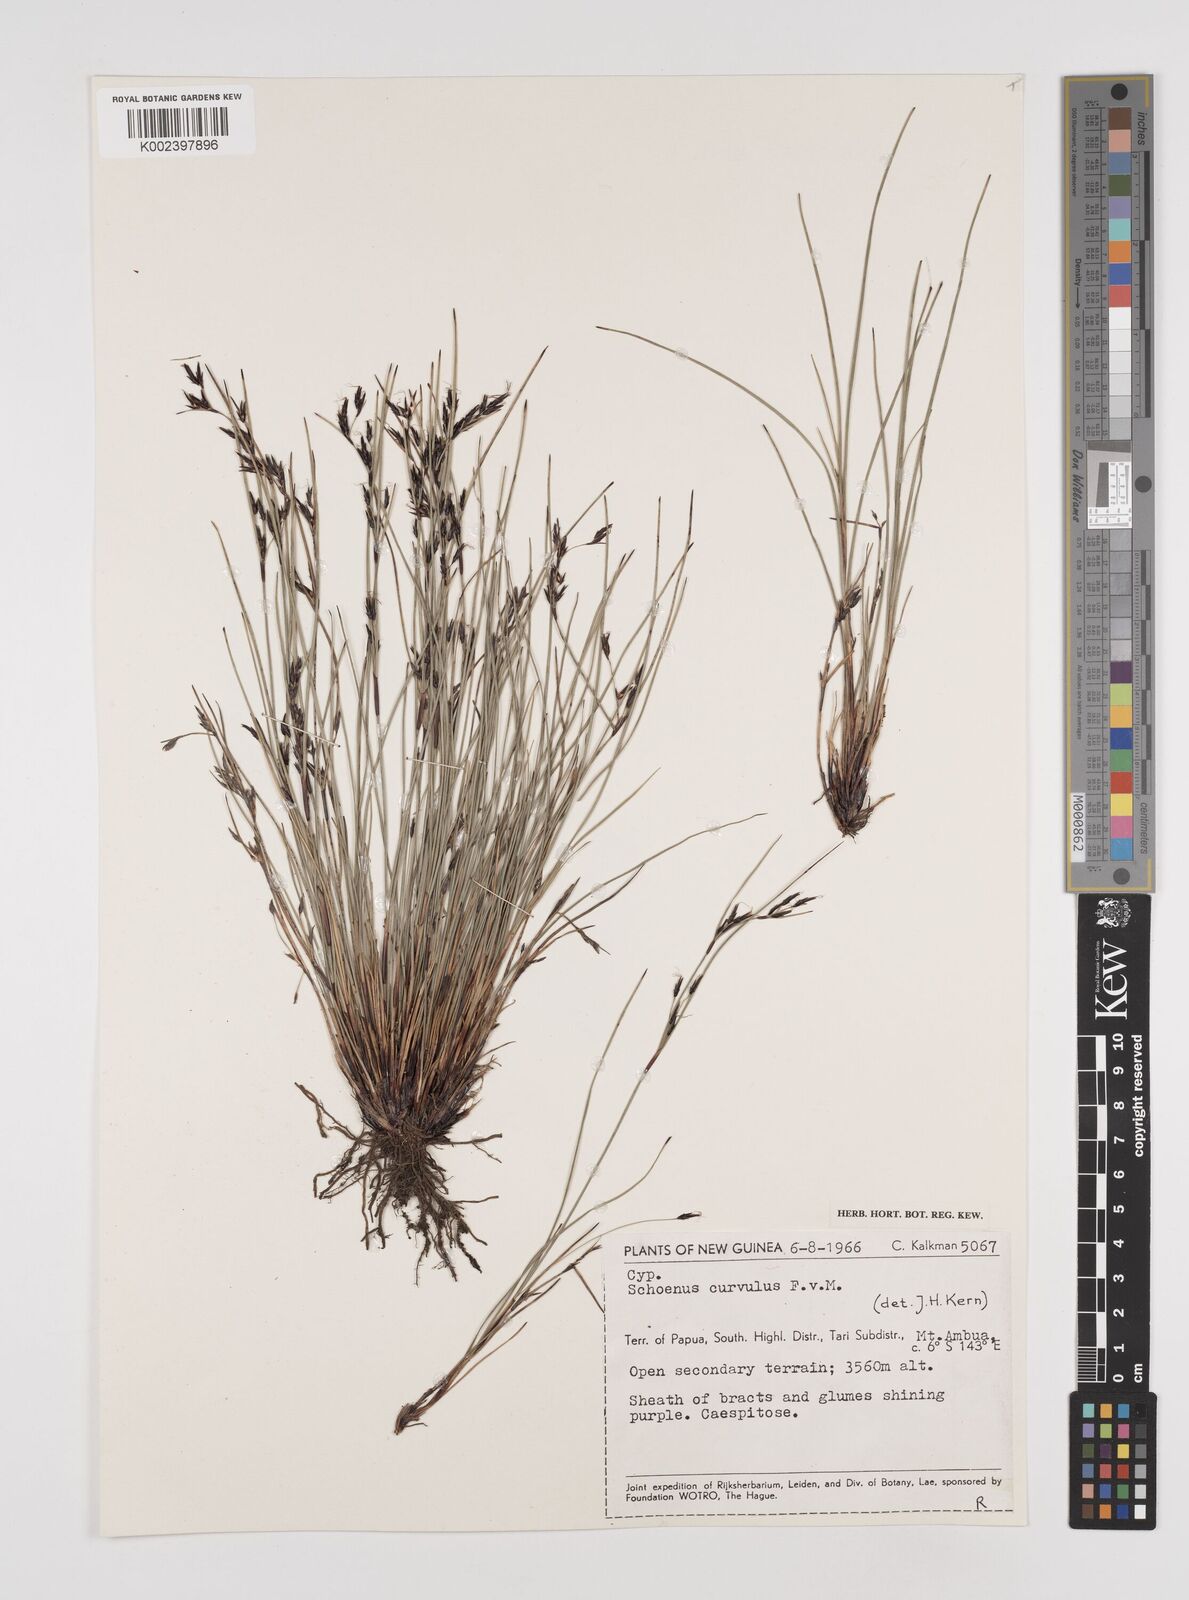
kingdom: Plantae
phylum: Tracheophyta
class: Liliopsida
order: Poales
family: Cyperaceae
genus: Schoenus
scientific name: Schoenus curvulus
